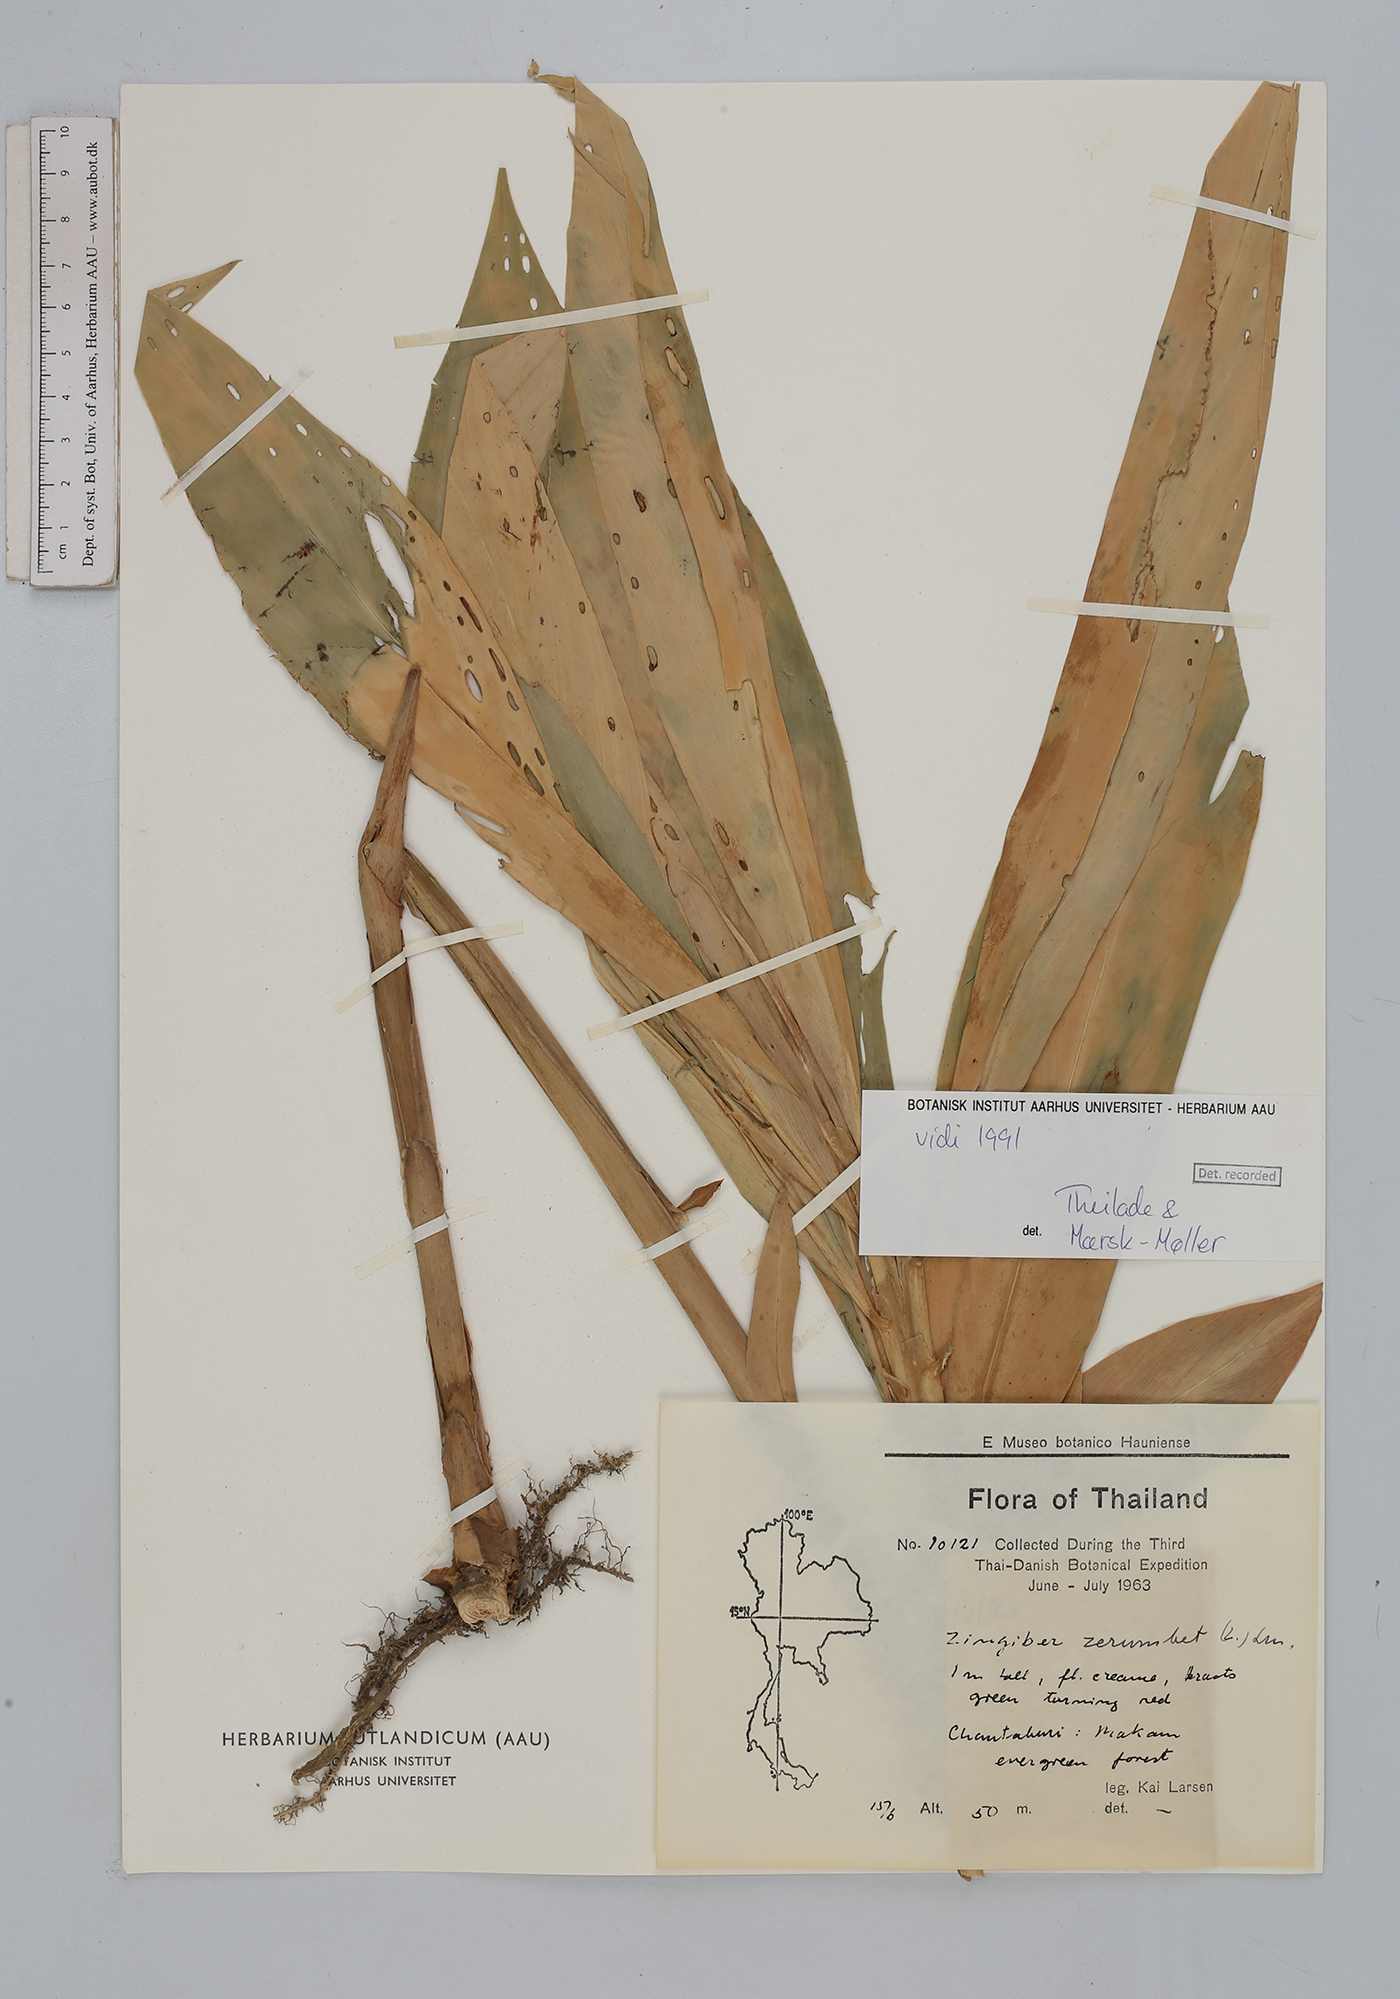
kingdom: Plantae
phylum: Tracheophyta
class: Liliopsida
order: Zingiberales
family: Zingiberaceae
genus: Zingiber
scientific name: Zingiber zerumbet
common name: Bitter ginger
